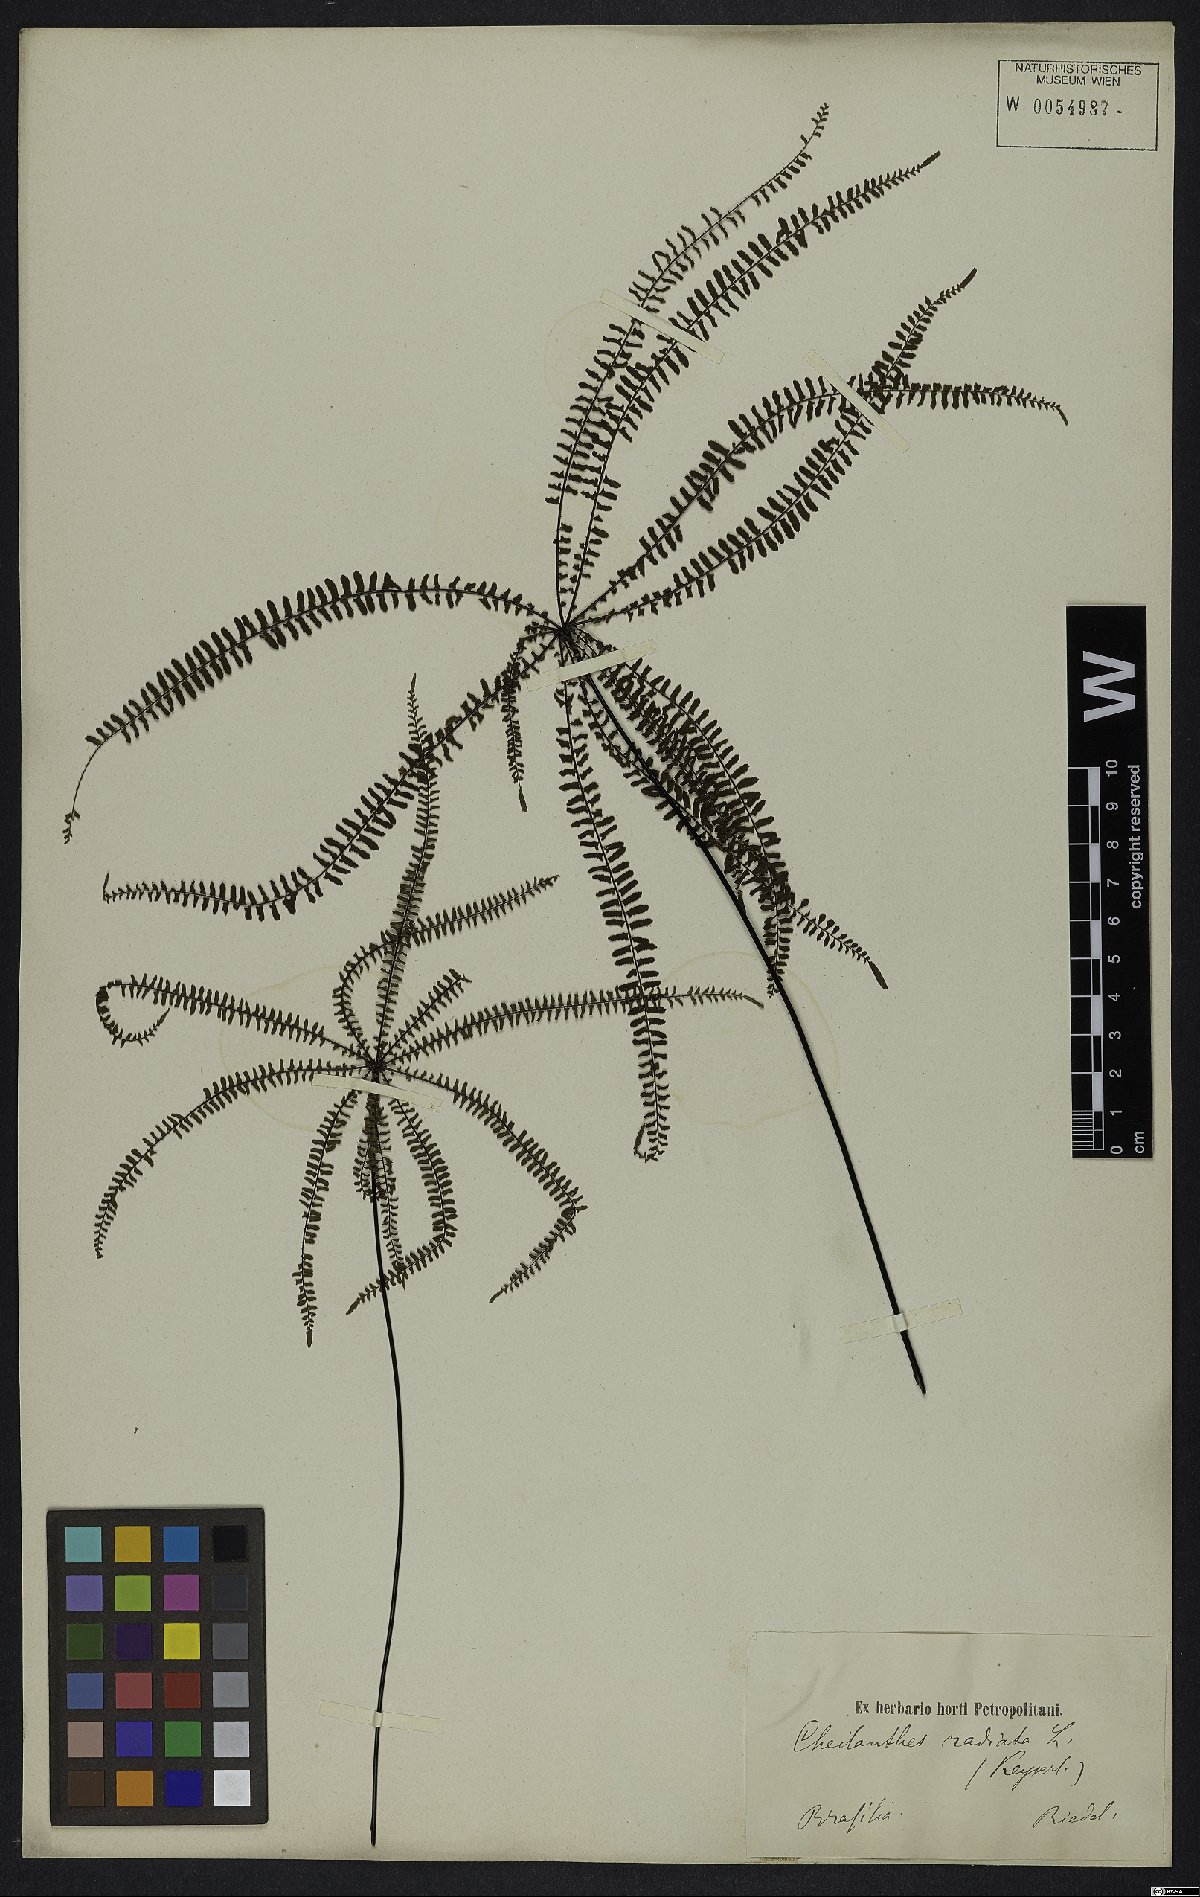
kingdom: Plantae
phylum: Tracheophyta
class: Polypodiopsida
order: Polypodiales
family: Pteridaceae
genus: Adiantopsis
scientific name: Adiantopsis radiata
